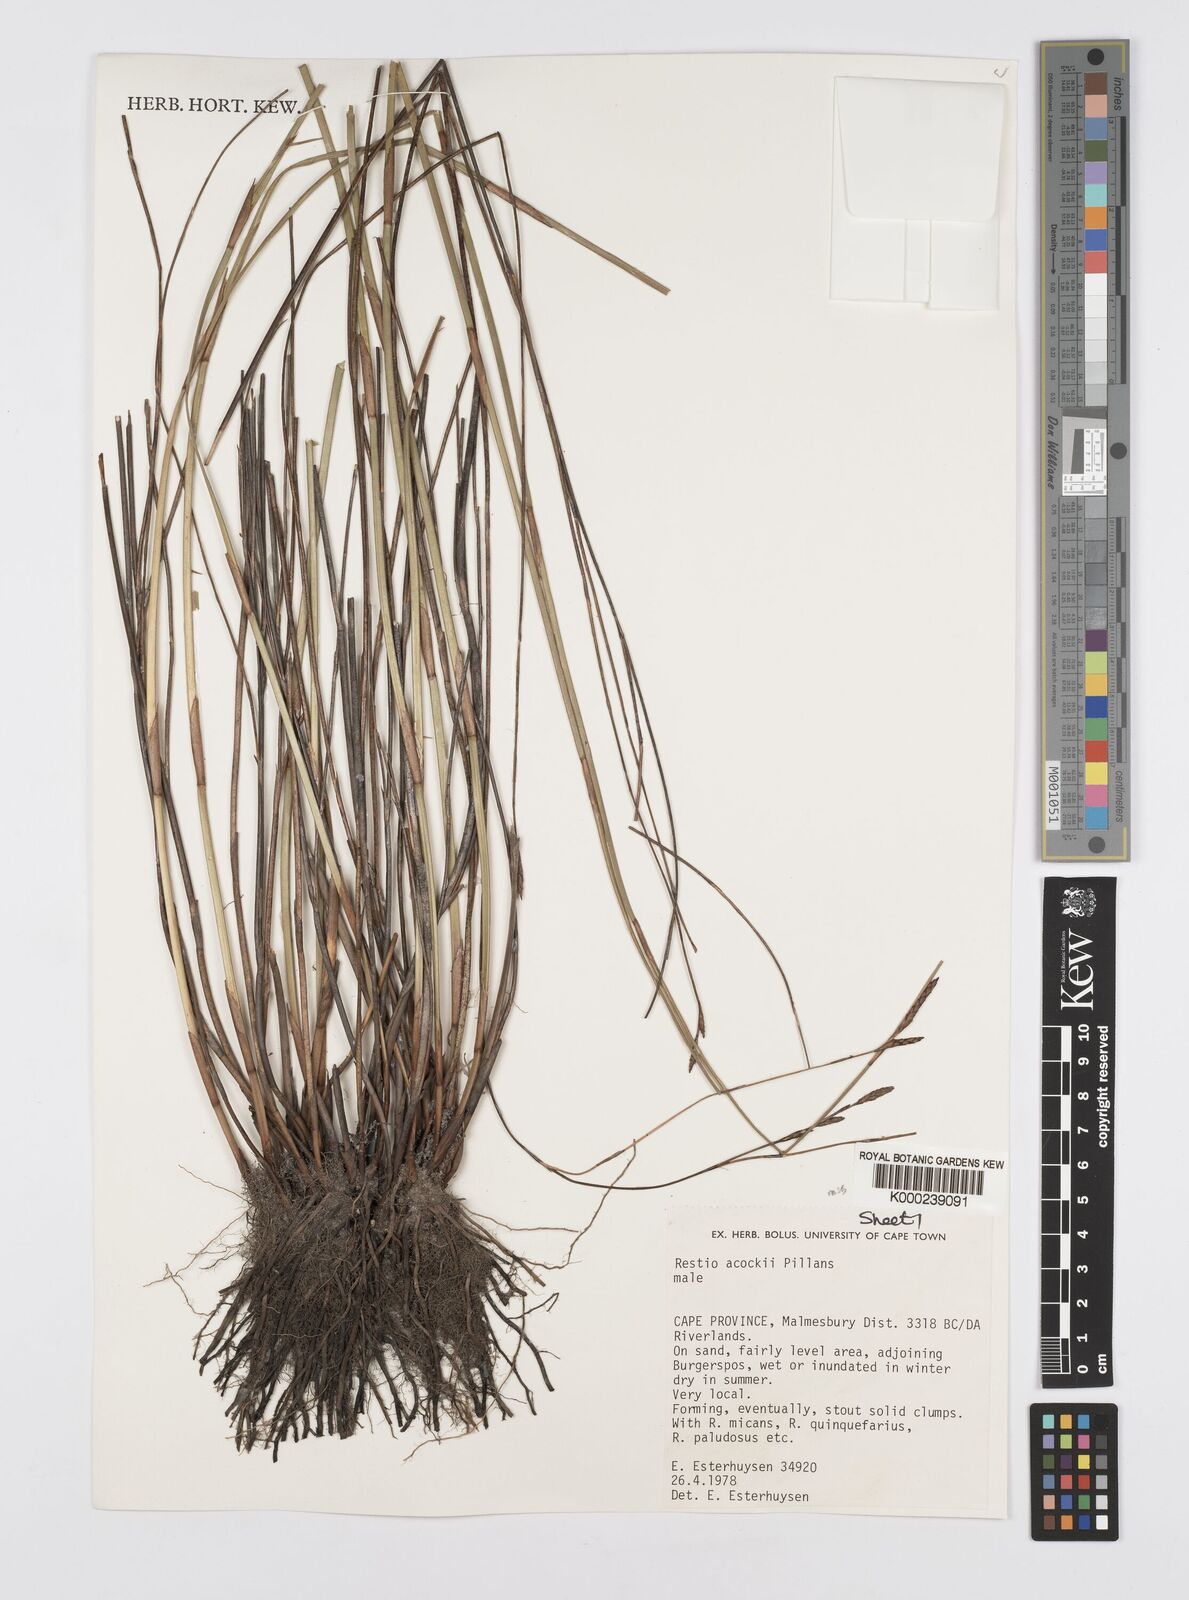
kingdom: Plantae
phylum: Tracheophyta
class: Liliopsida
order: Poales
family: Restionaceae
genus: Restio
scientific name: Restio acockii
